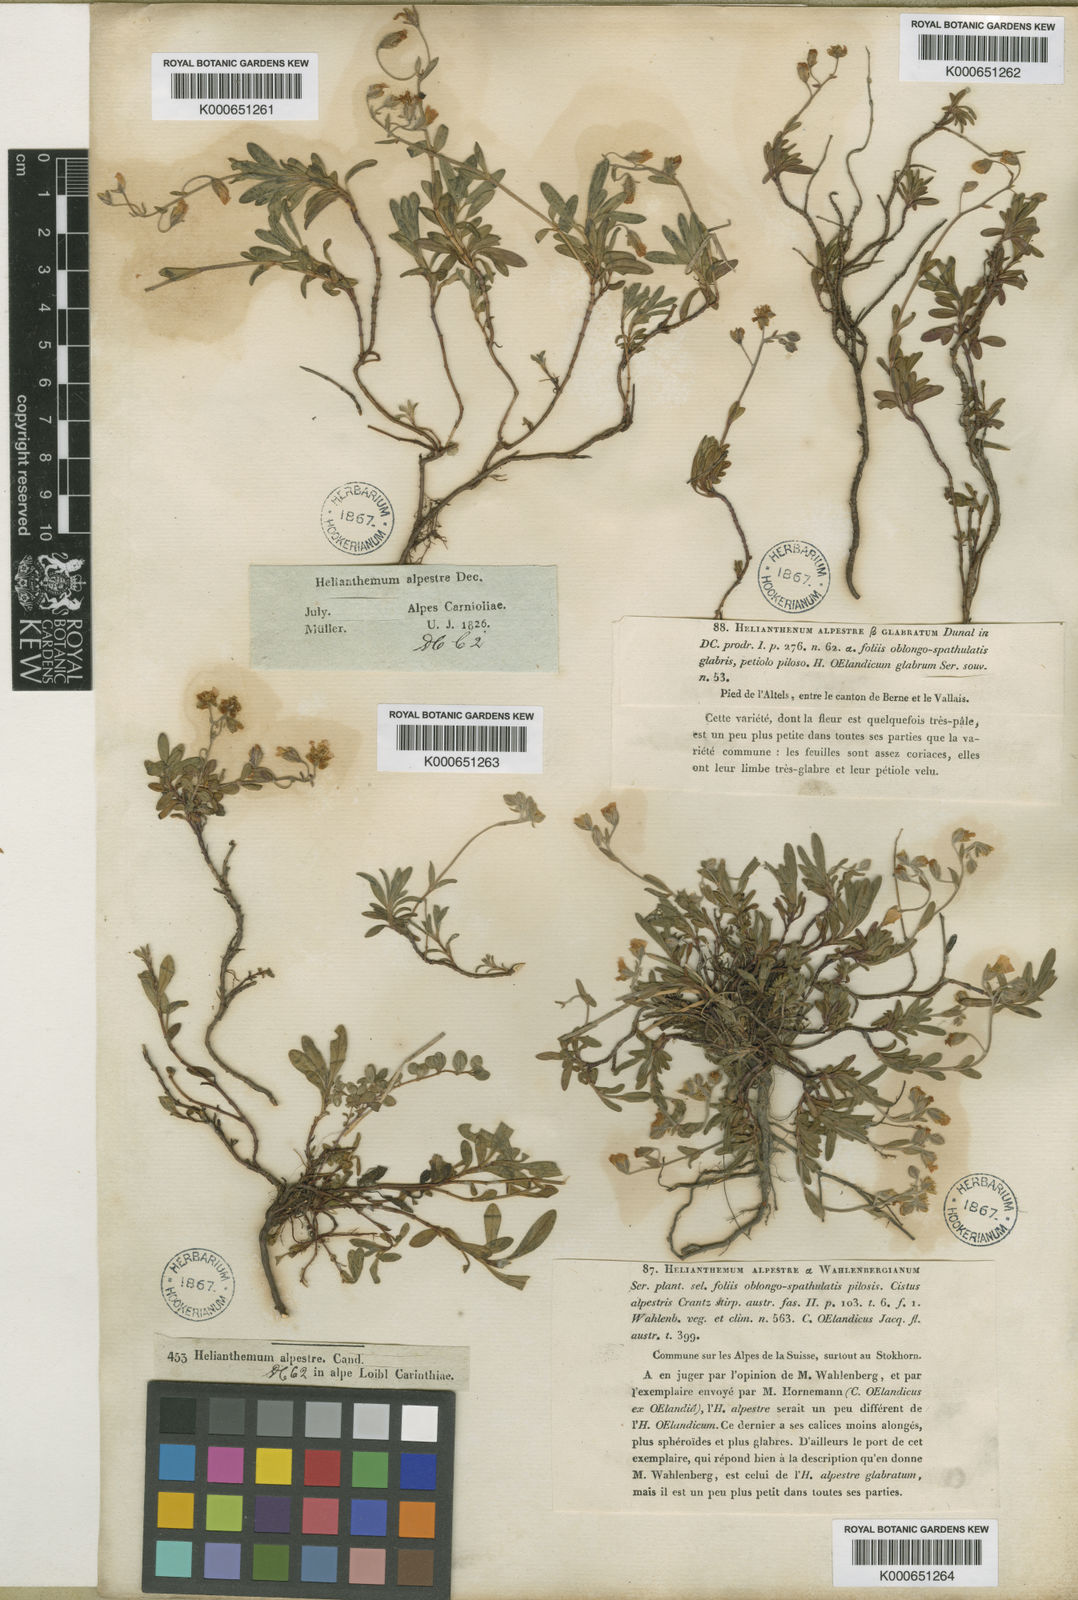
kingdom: Plantae
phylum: Tracheophyta
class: Magnoliopsida
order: Malvales
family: Cistaceae
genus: Helianthemum
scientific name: Helianthemum
